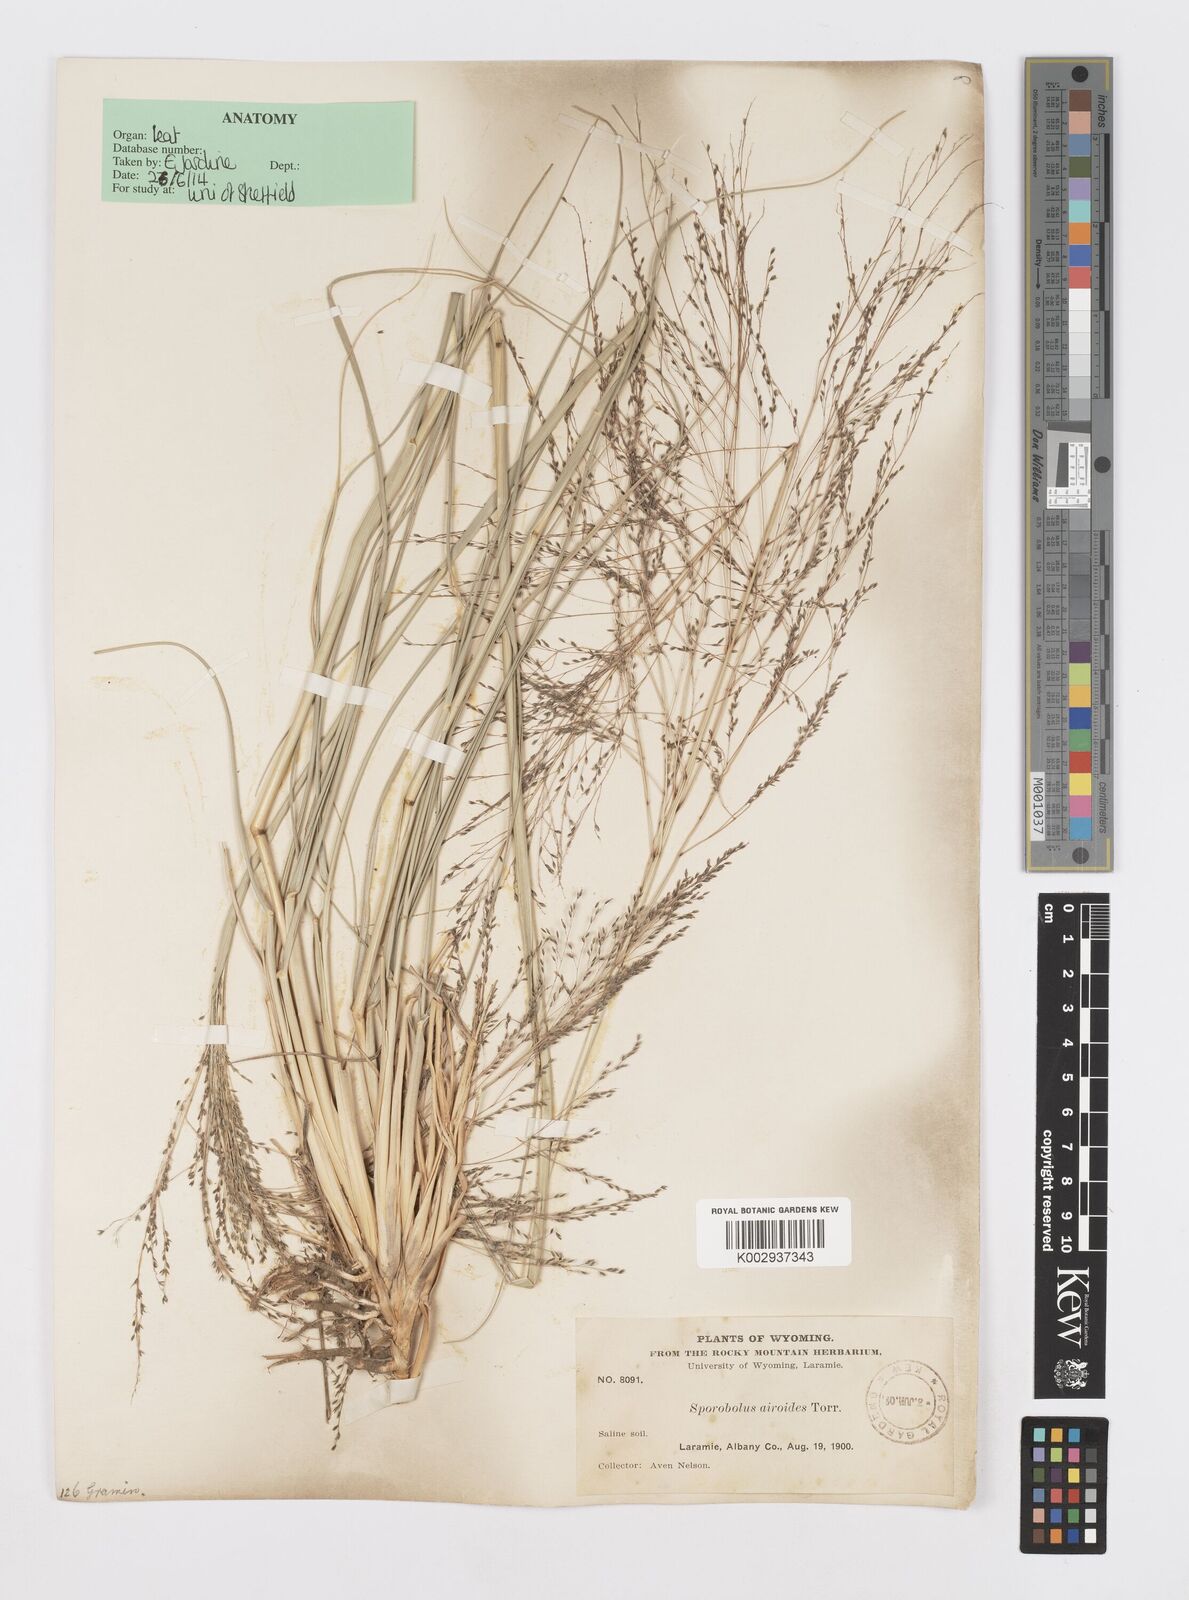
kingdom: Plantae
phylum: Tracheophyta
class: Liliopsida
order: Poales
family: Poaceae
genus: Sporobolus
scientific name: Sporobolus airoides
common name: Alkali sacaton
